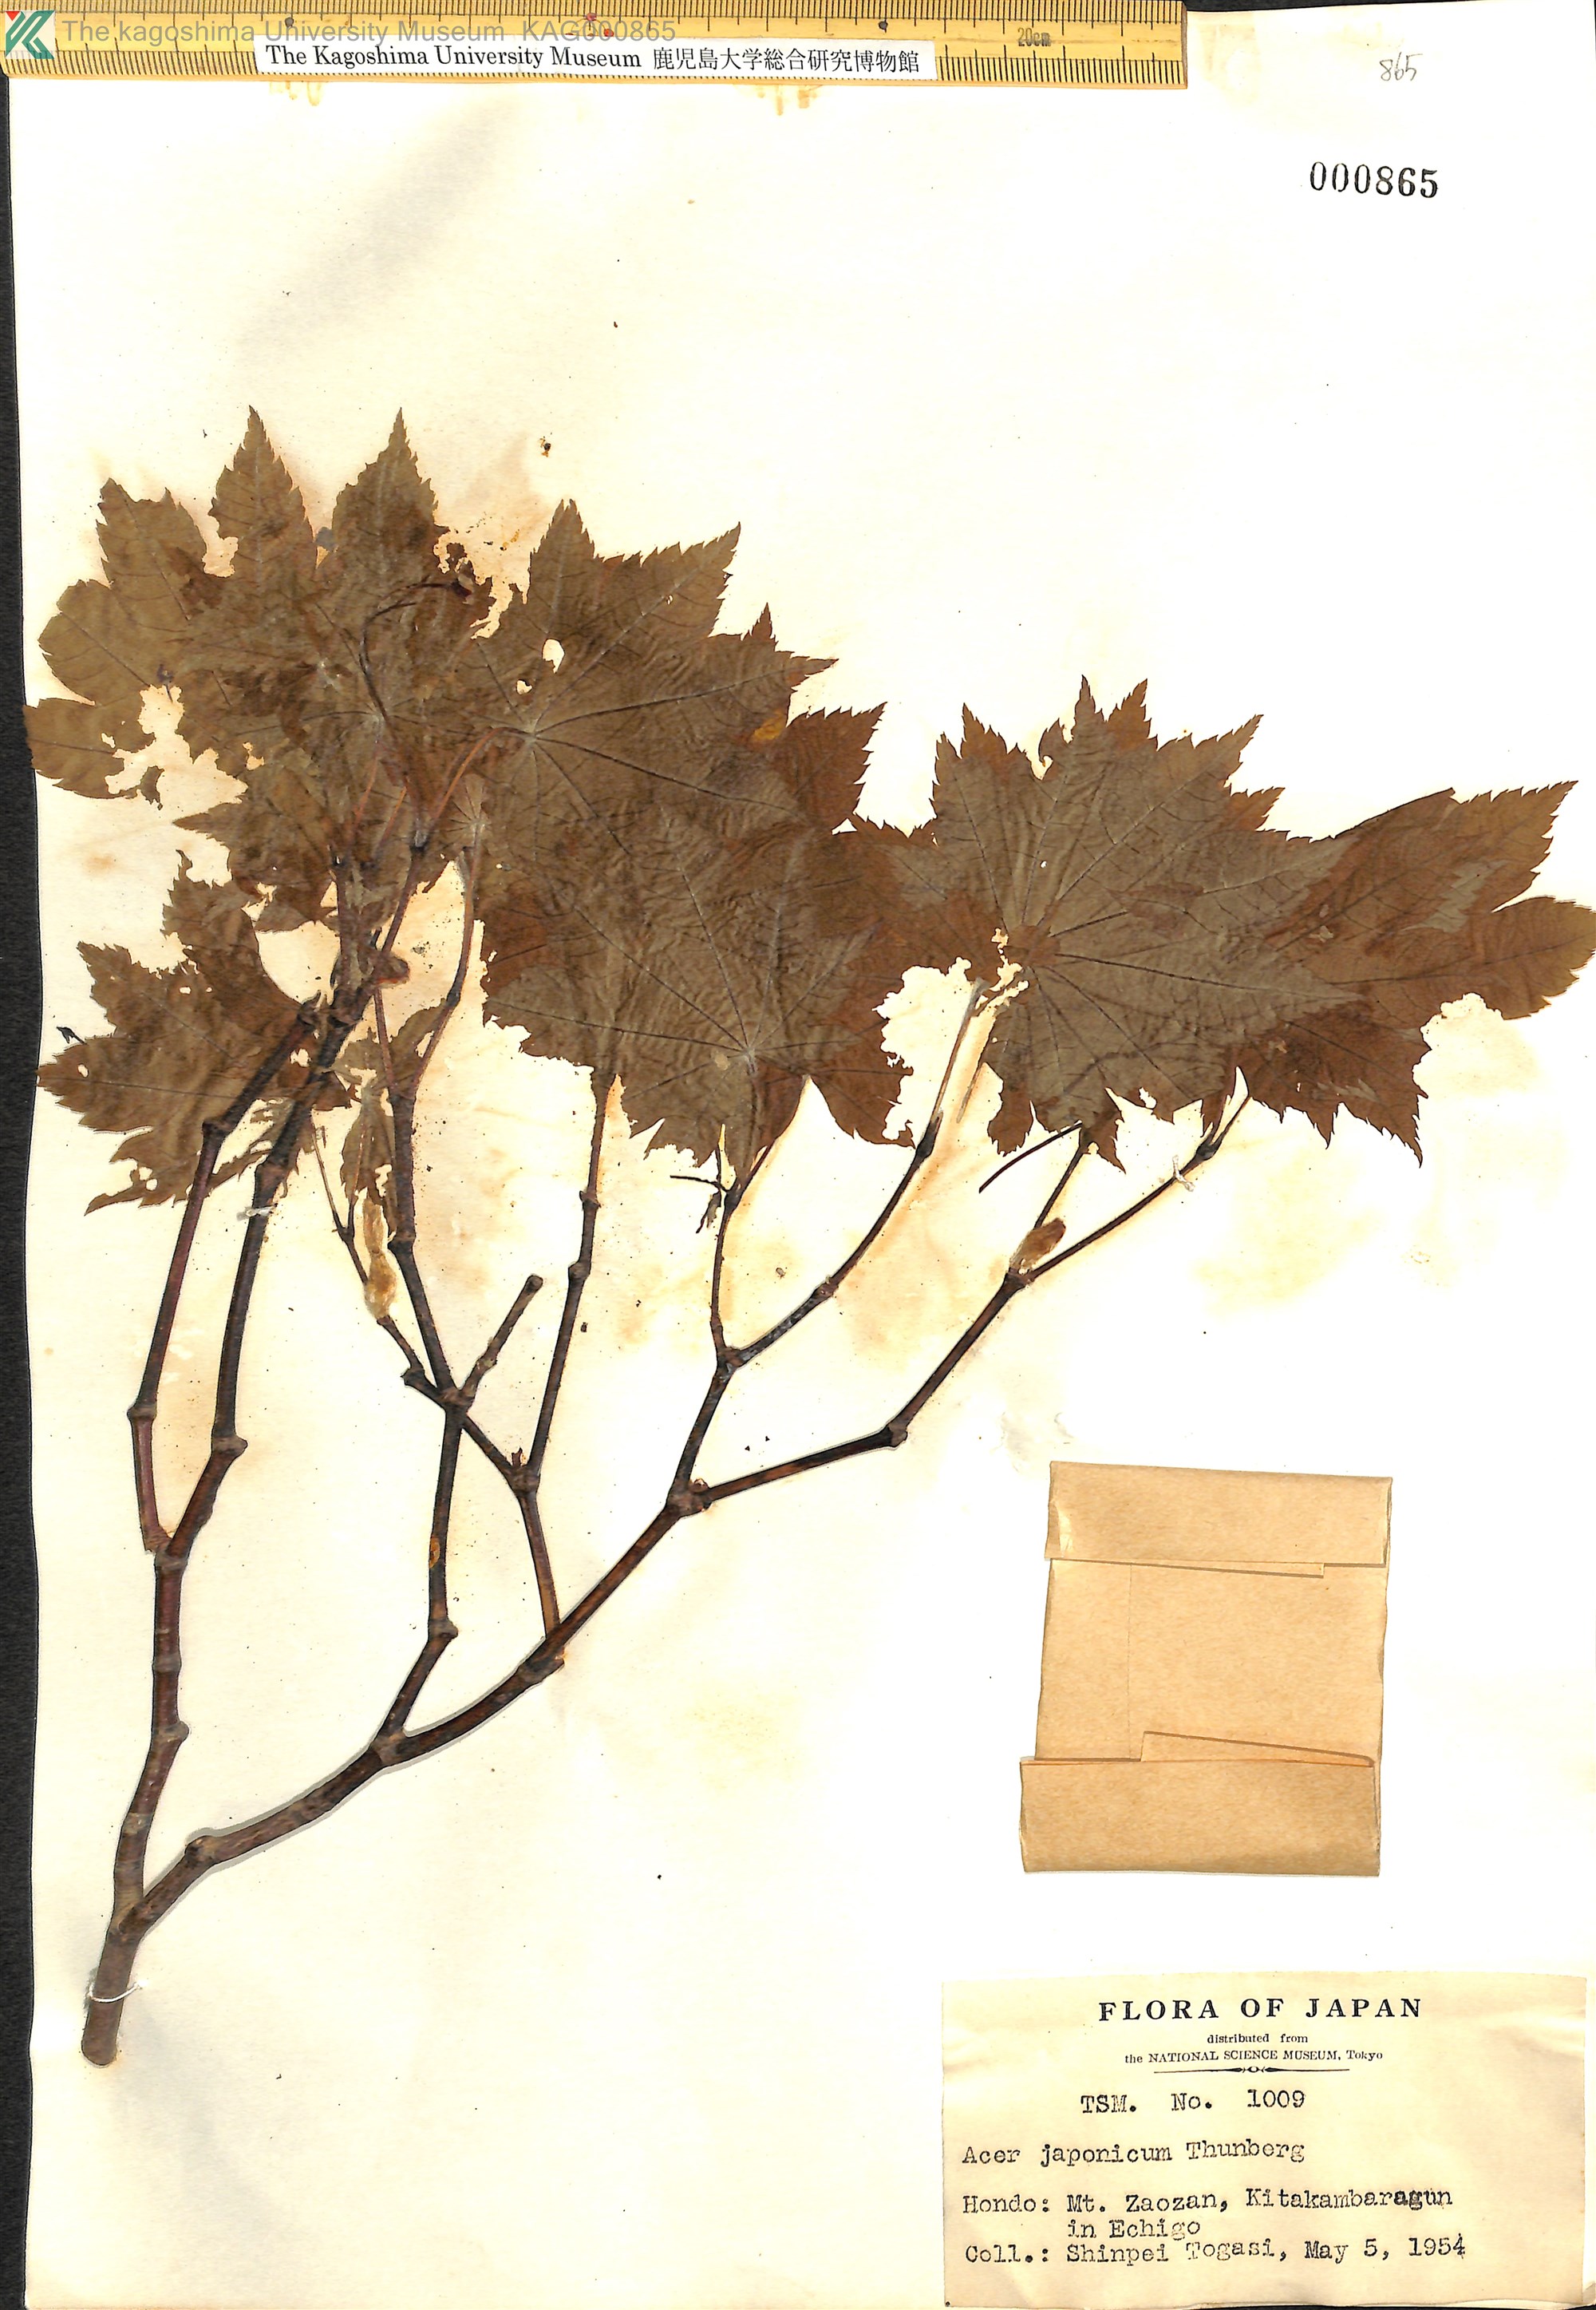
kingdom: Plantae
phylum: Tracheophyta
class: Magnoliopsida
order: Sapindales
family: Sapindaceae
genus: Acer
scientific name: Acer japonicum
